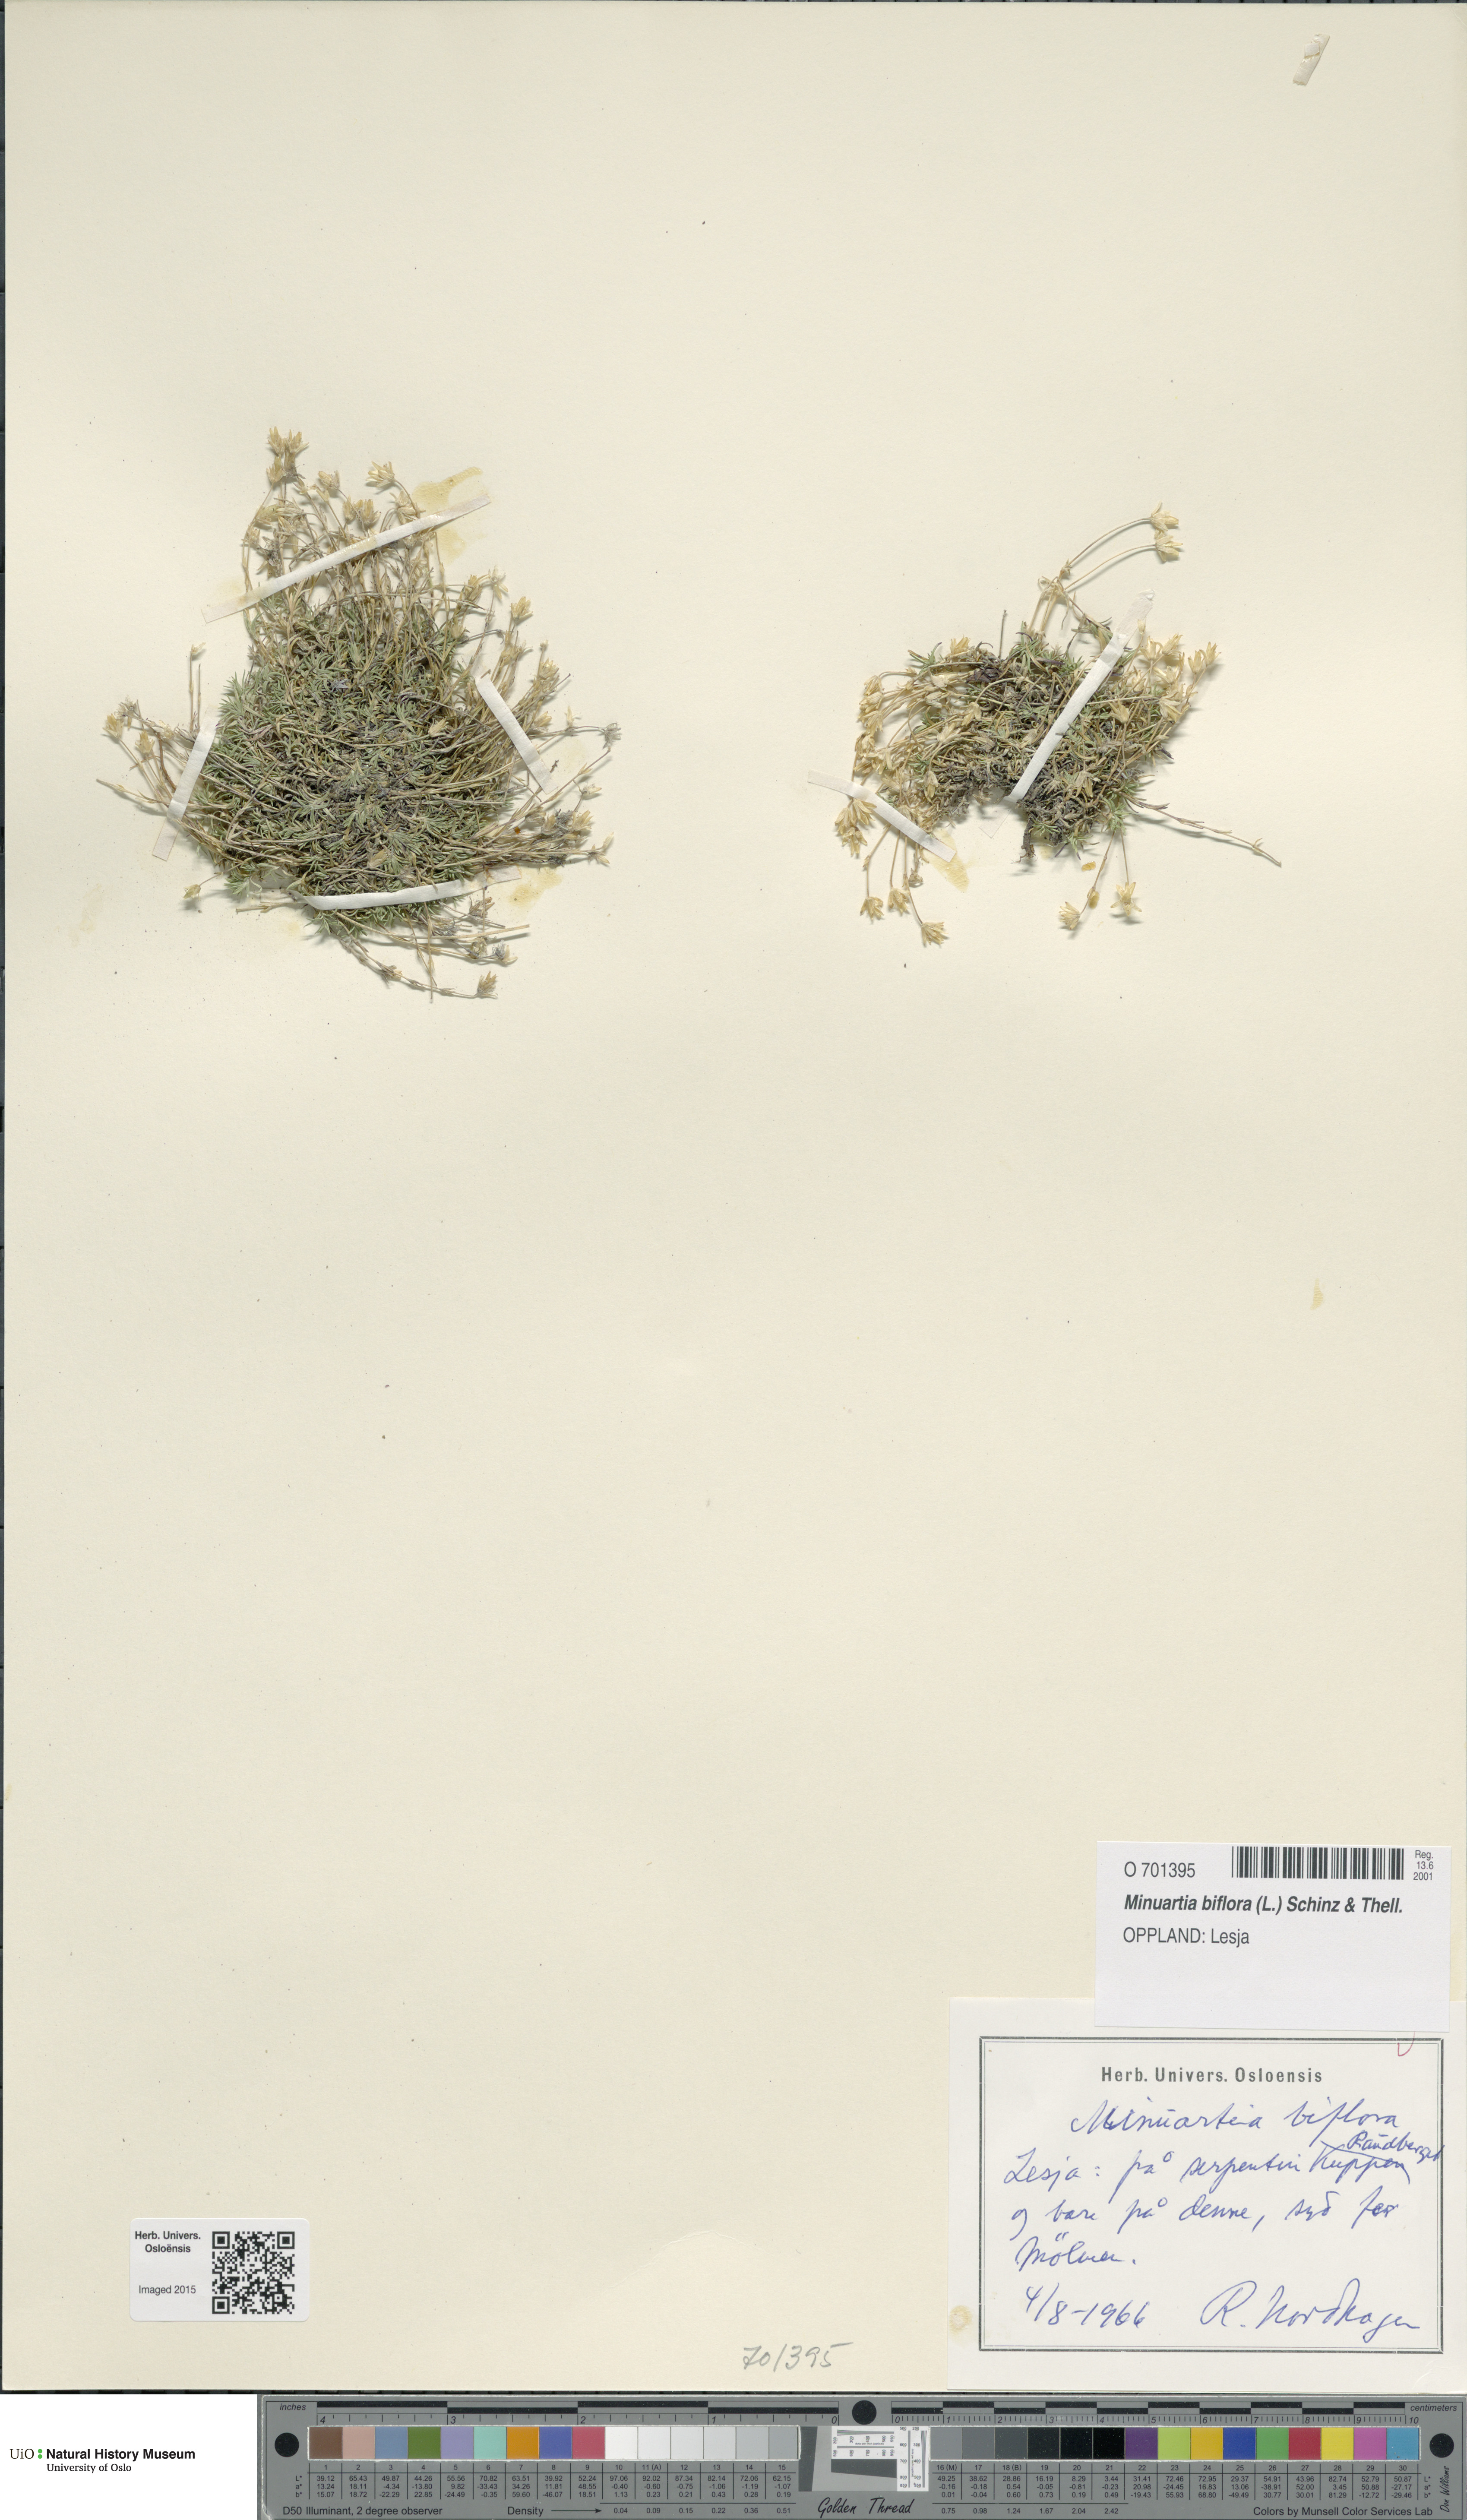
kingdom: Plantae
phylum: Tracheophyta
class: Magnoliopsida
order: Caryophyllales
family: Caryophyllaceae
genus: Cherleria
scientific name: Cherleria biflora
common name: Mountain sandwort
